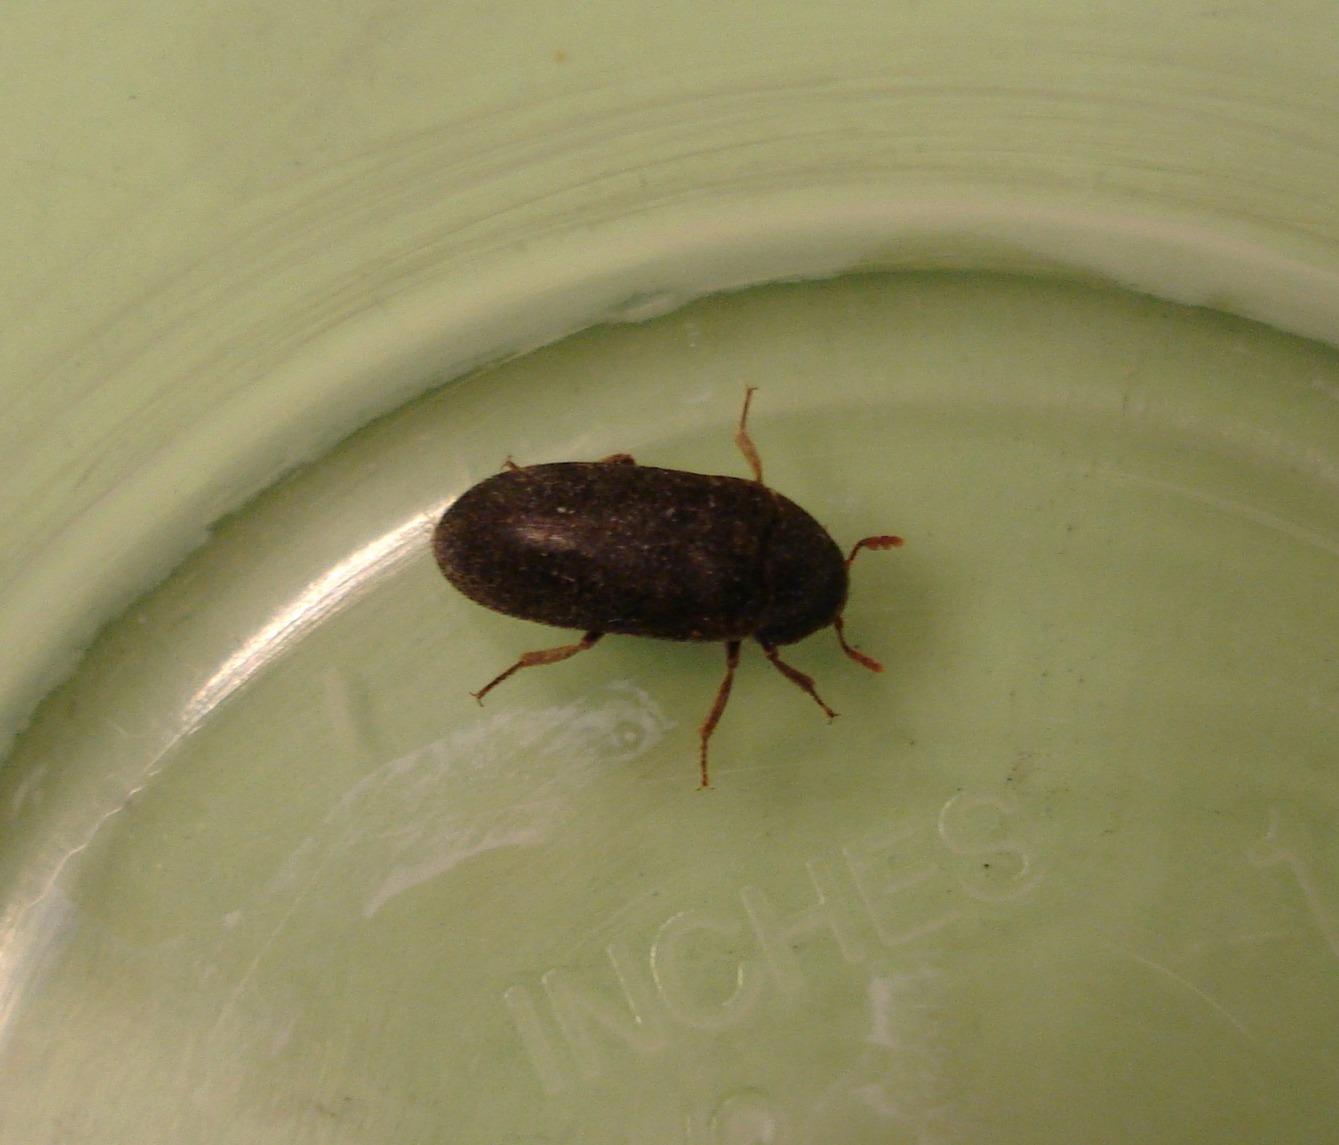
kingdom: Animalia
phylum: Arthropoda
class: Insecta
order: Coleoptera
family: Dermestidae
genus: Dermestes
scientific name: Dermestes haemorrhoidalis
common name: Husklanner
